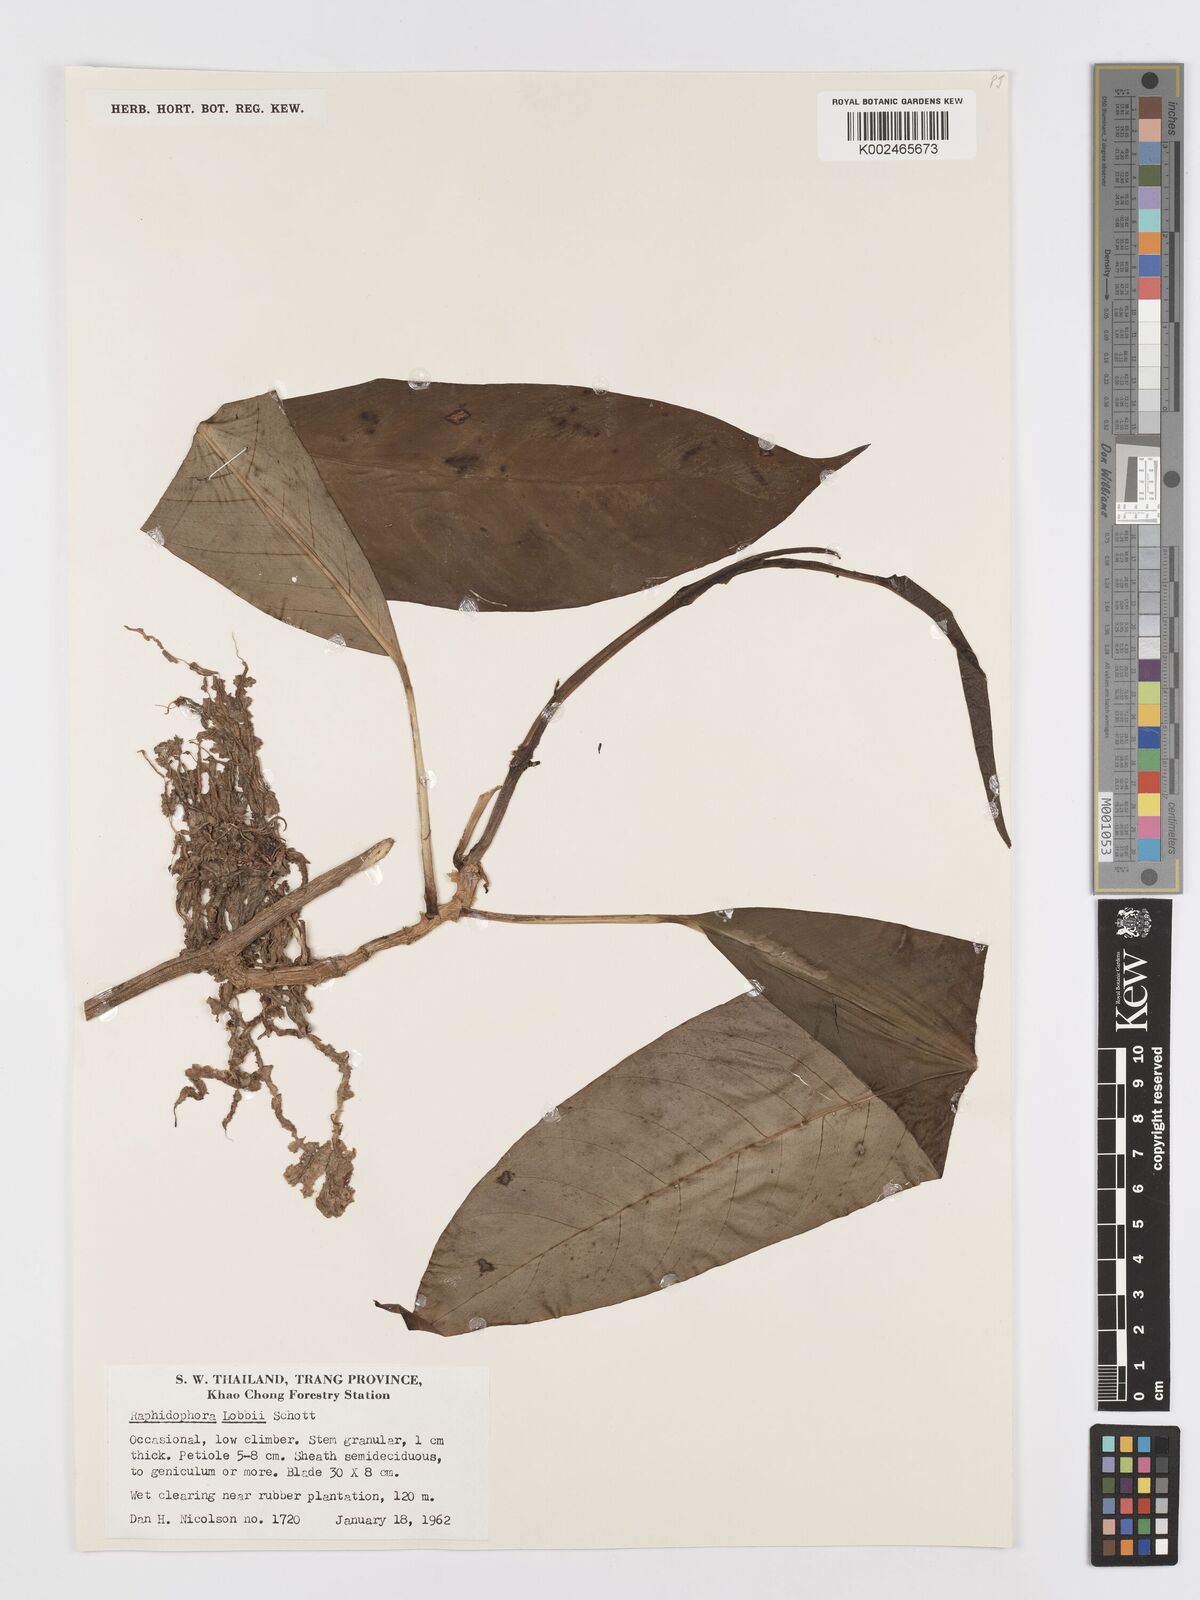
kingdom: Plantae
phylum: Tracheophyta
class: Liliopsida
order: Alismatales
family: Araceae
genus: Rhaphidophora
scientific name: Rhaphidophora lobbii
